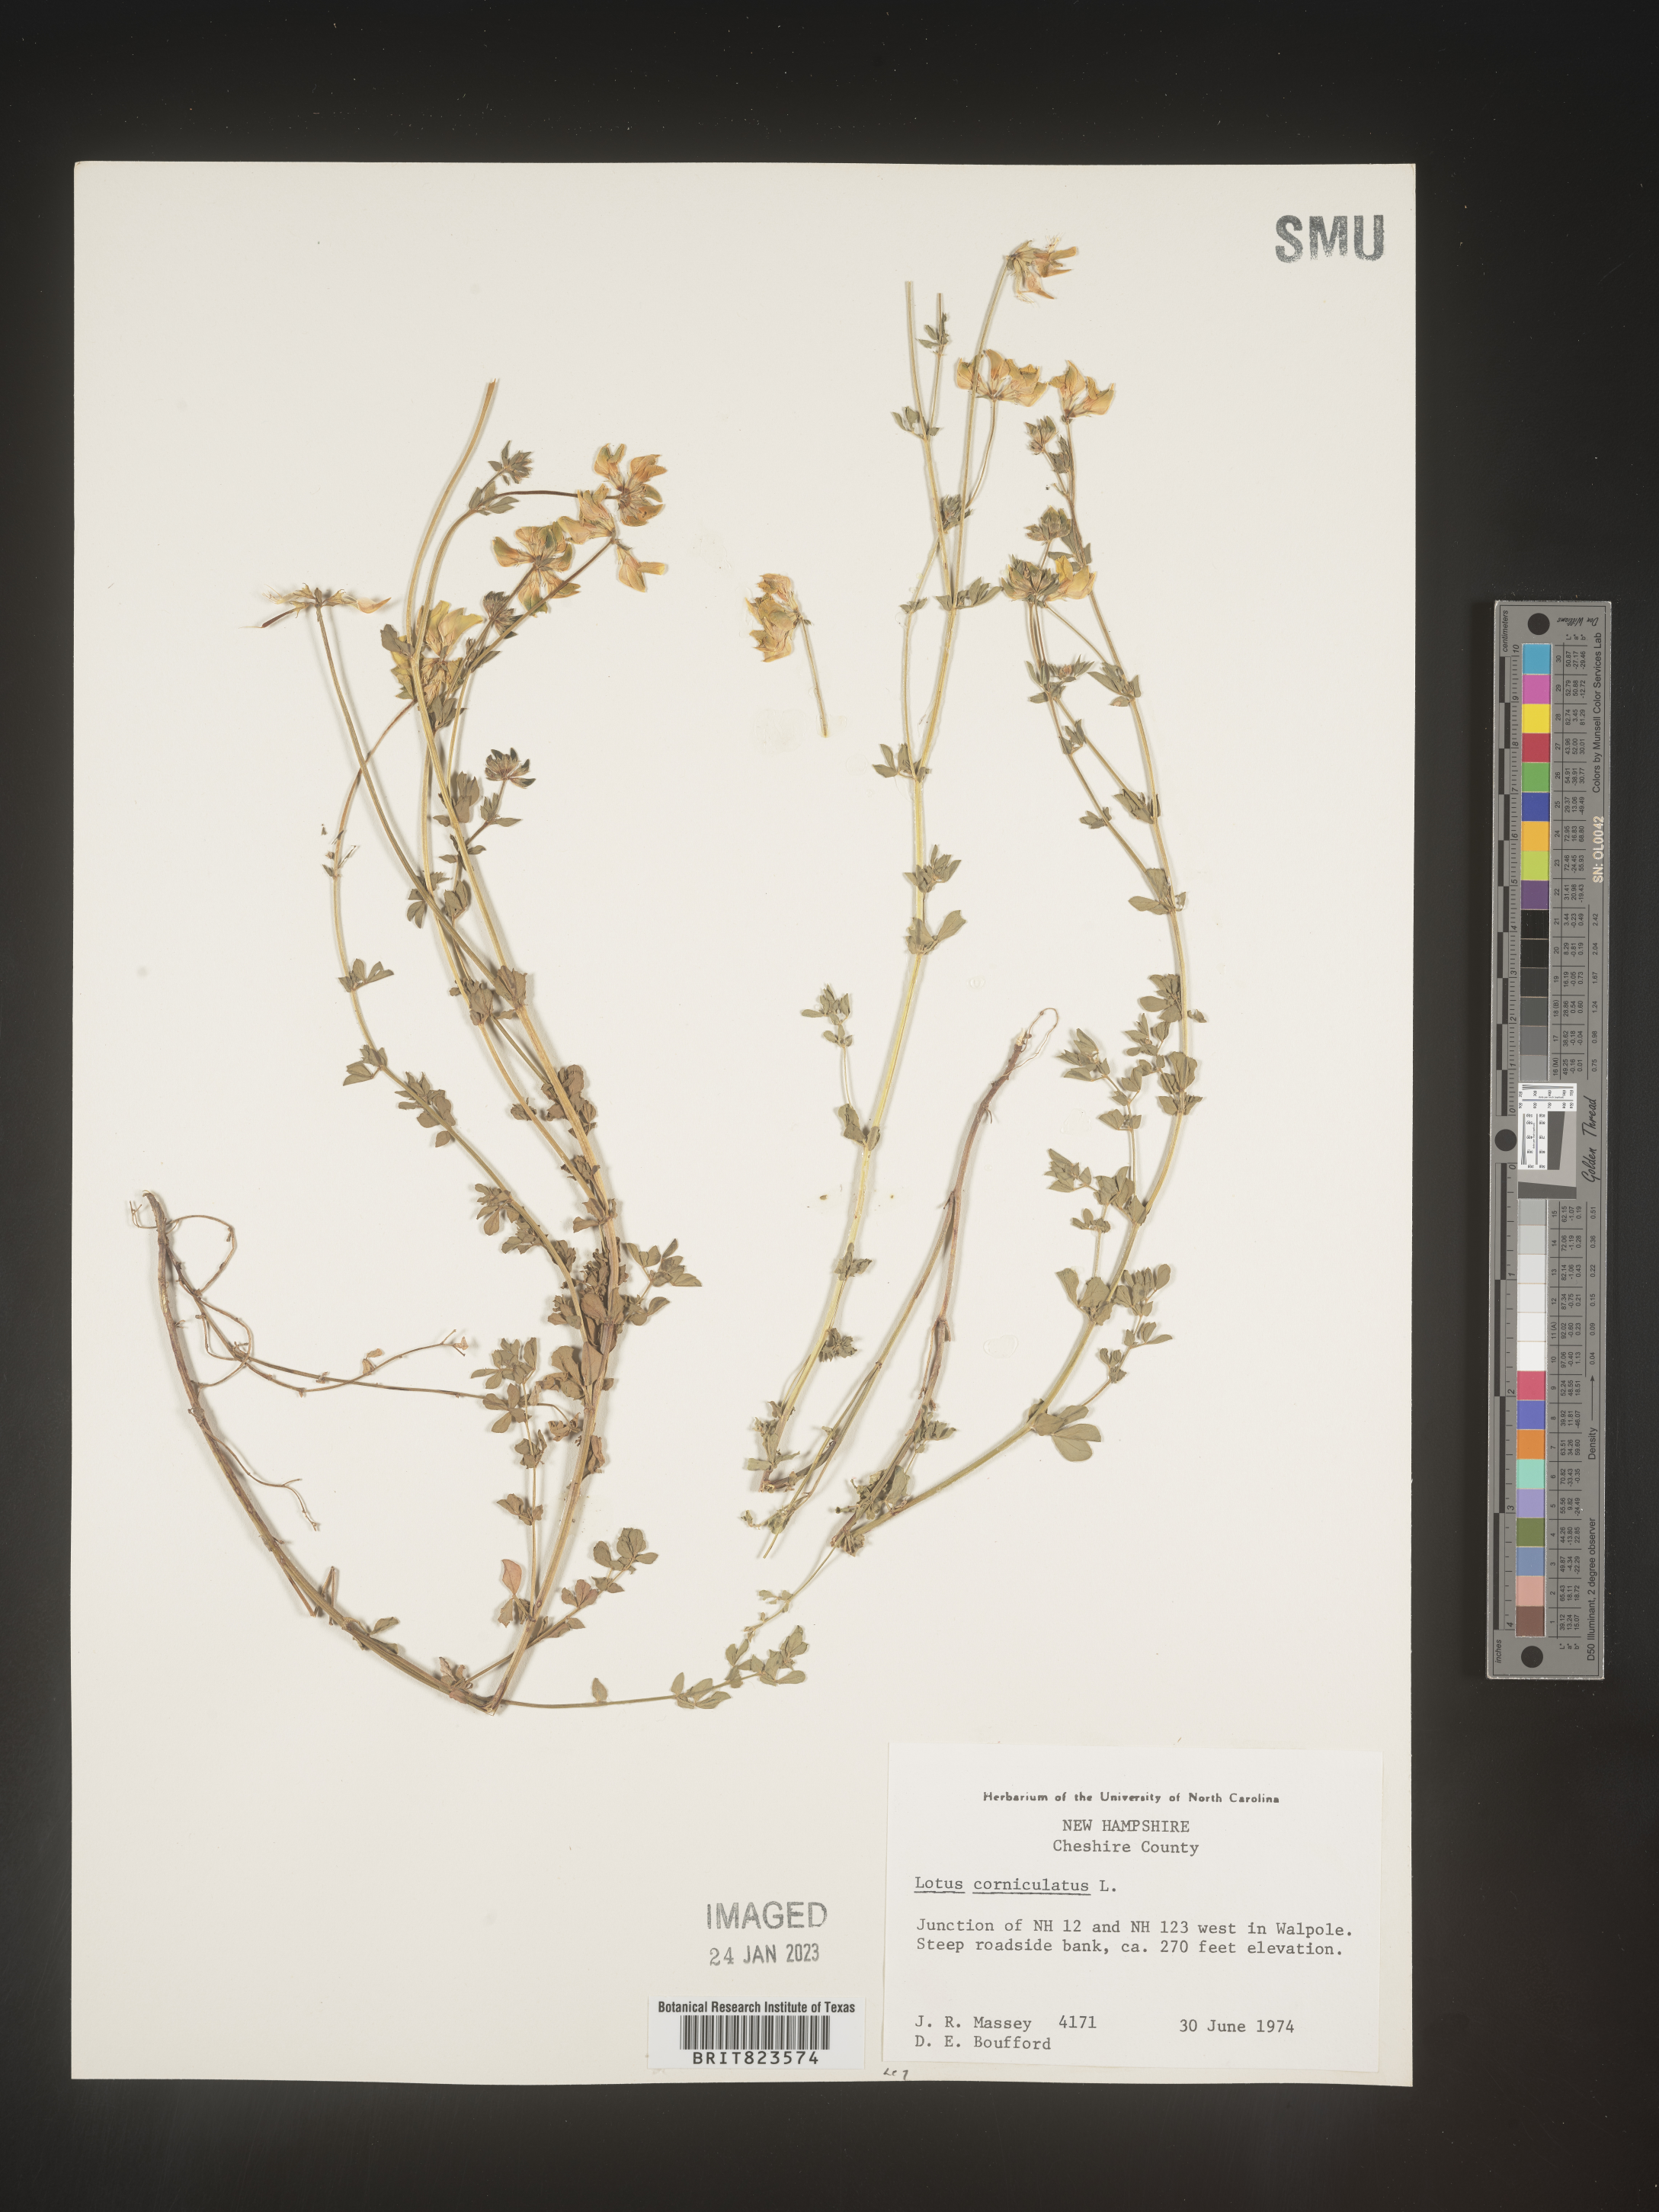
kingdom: Plantae
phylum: Tracheophyta
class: Magnoliopsida
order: Fabales
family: Fabaceae
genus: Lotus
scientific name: Lotus corniculatus
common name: Common bird's-foot-trefoil
